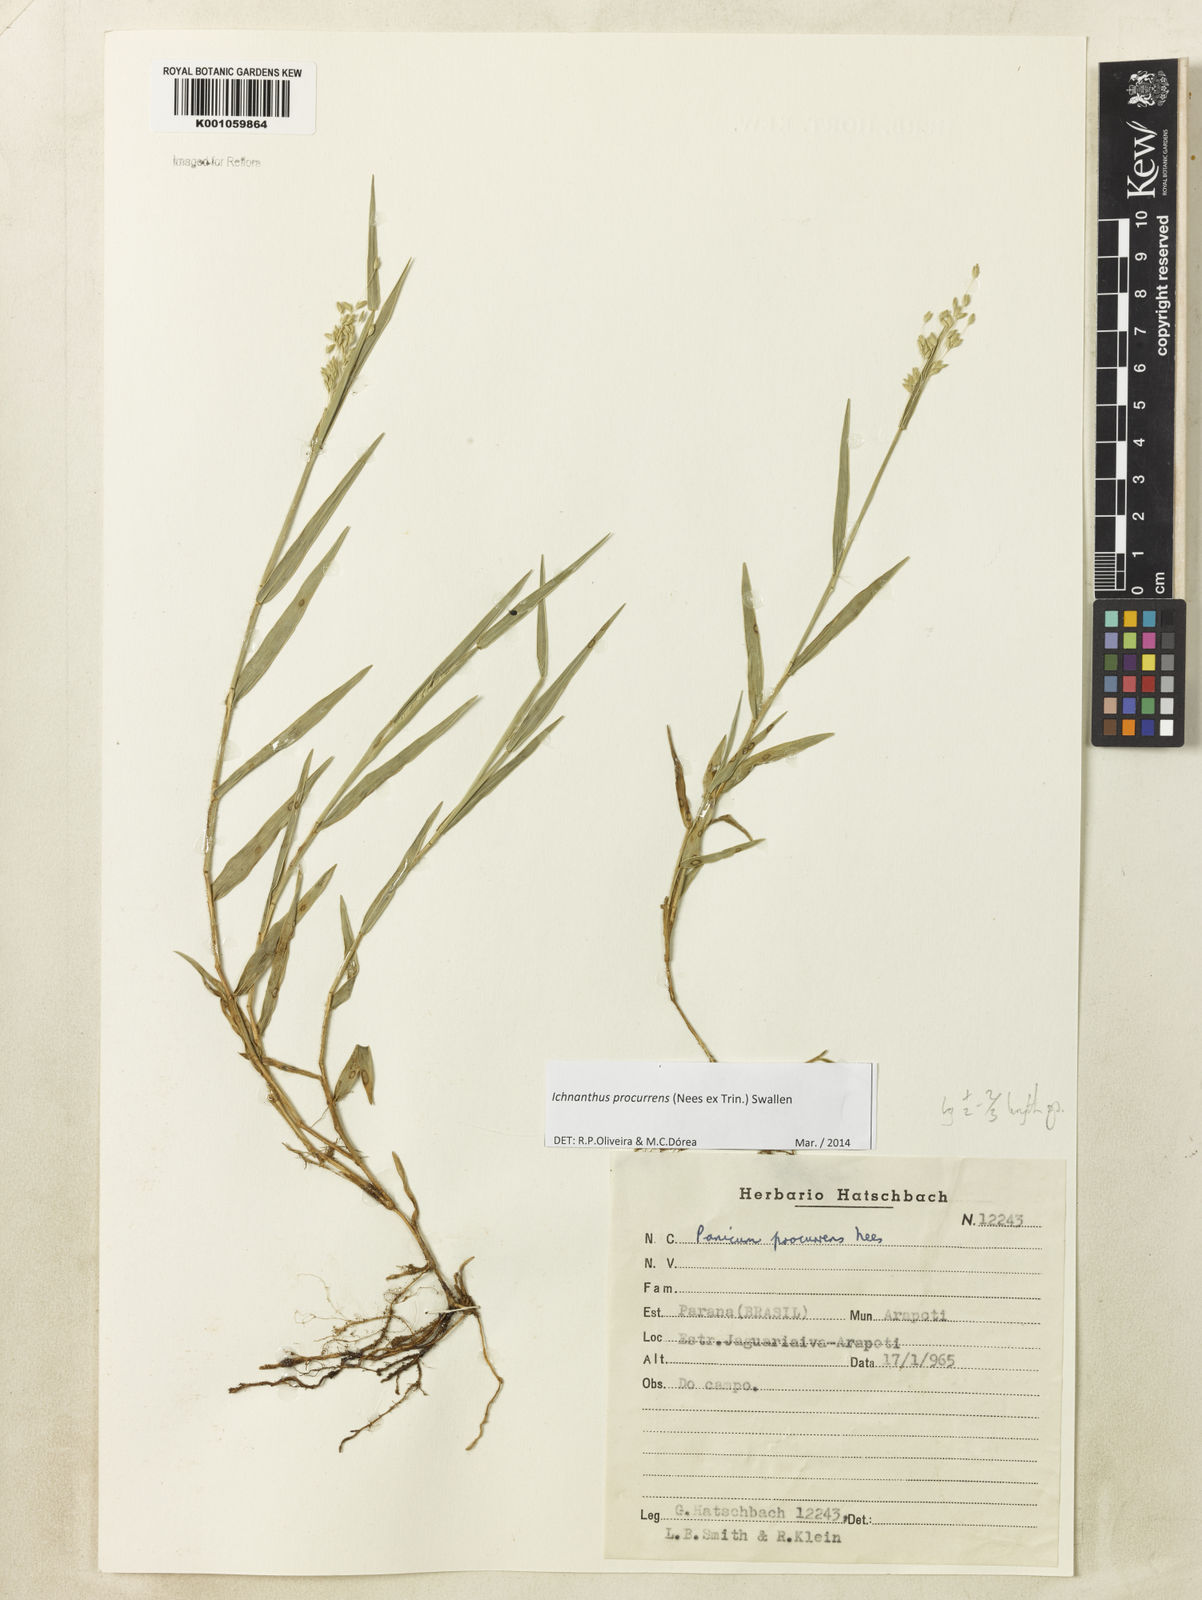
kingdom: Plantae
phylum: Tracheophyta
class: Liliopsida
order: Poales
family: Poaceae
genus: Oedochloa
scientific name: Oedochloa procurrens
